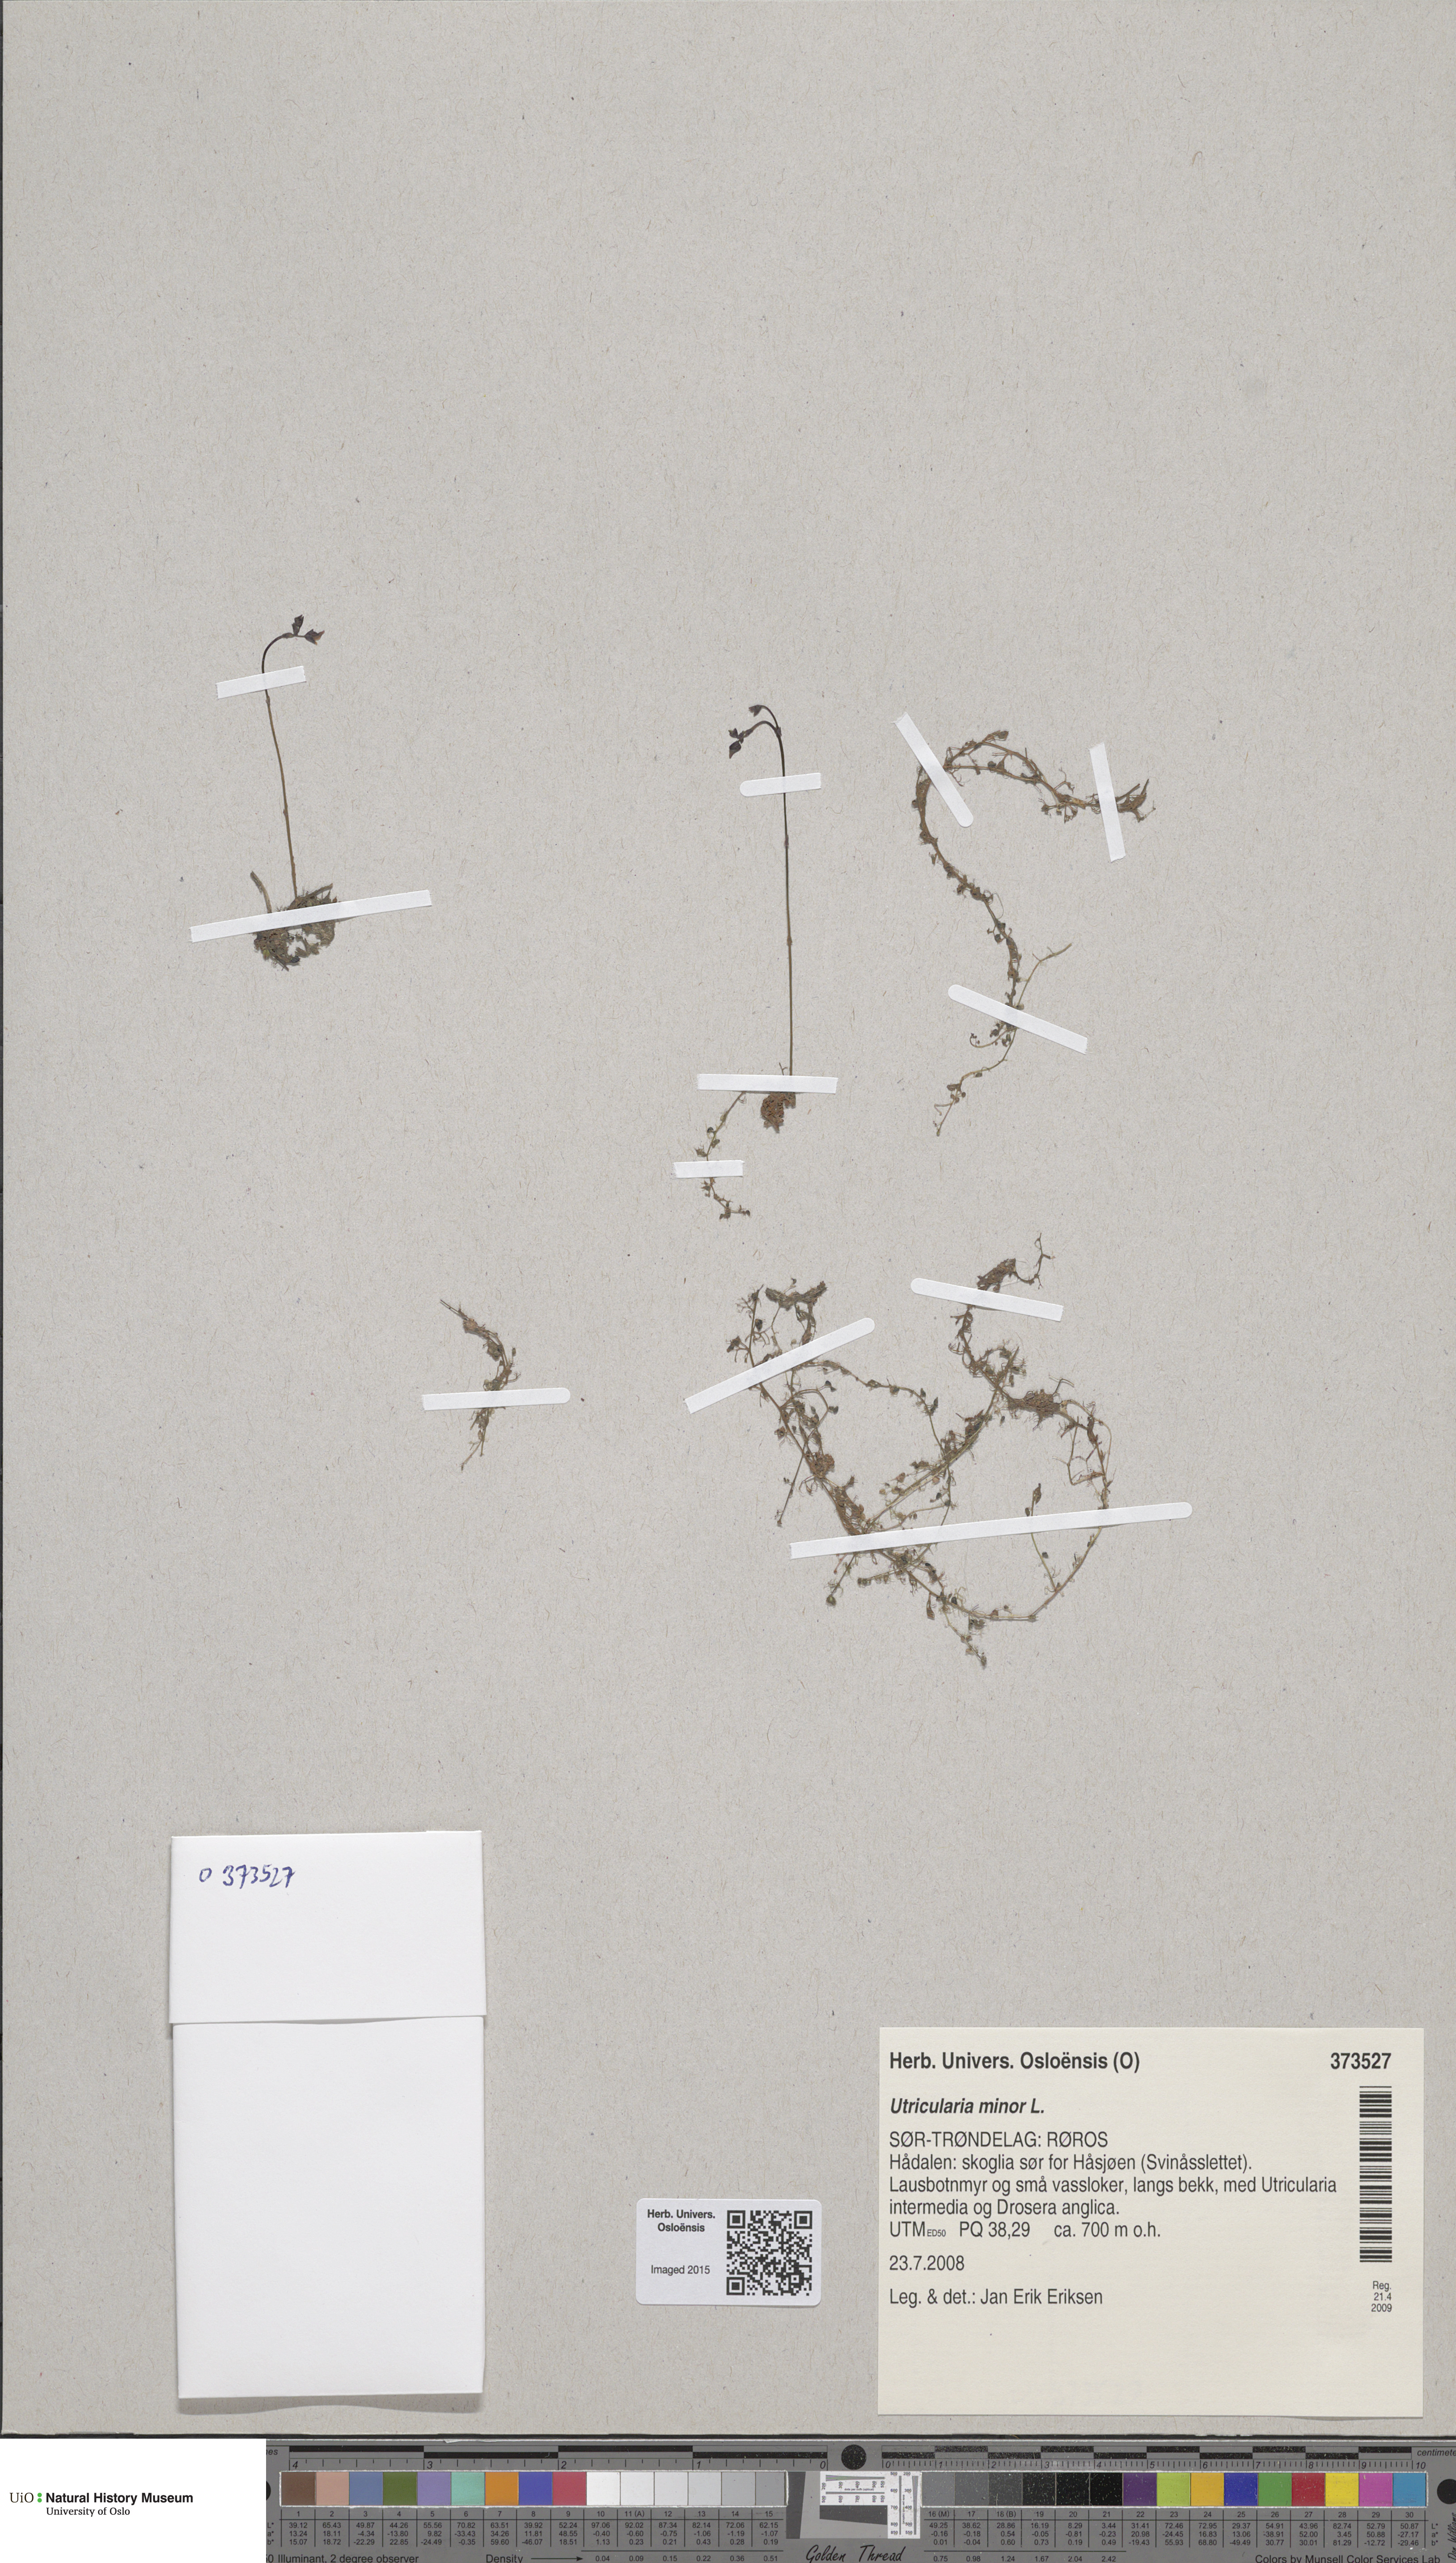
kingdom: Plantae
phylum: Tracheophyta
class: Magnoliopsida
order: Lamiales
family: Lentibulariaceae
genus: Utricularia
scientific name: Utricularia minor
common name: Lesser bladderwort
